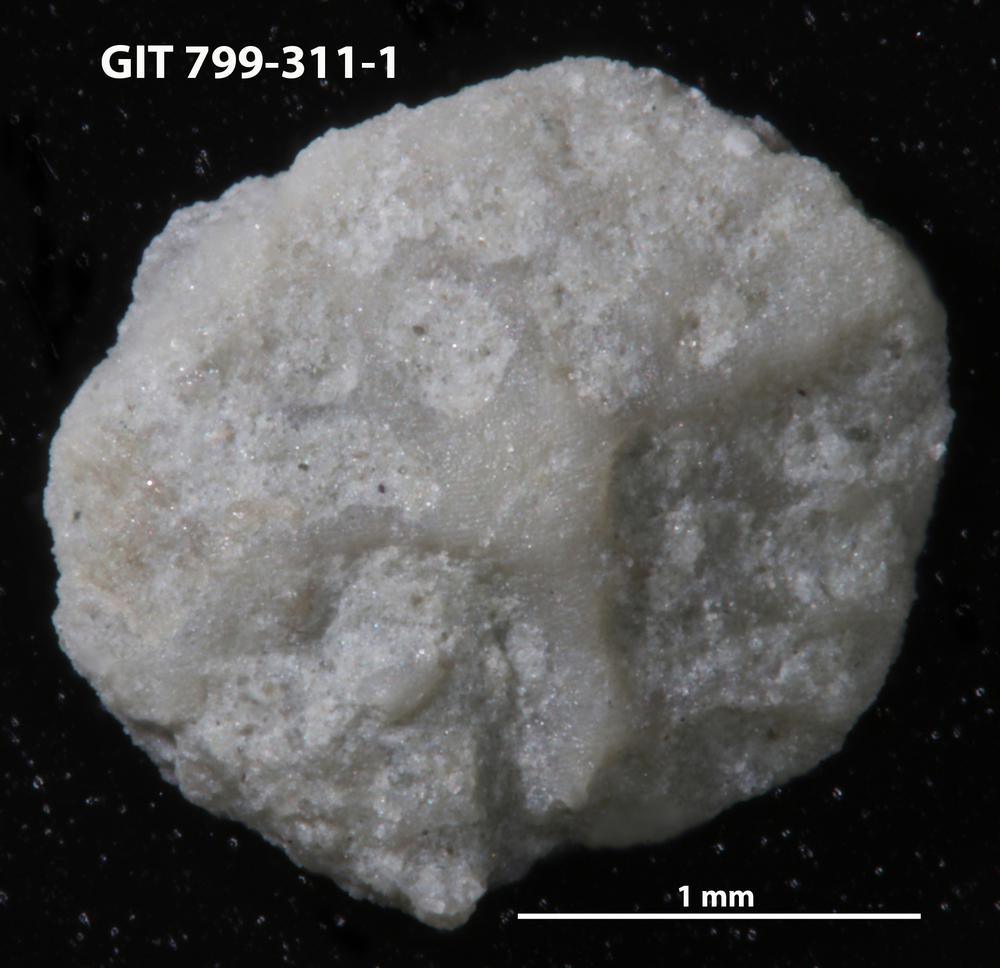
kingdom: Animalia
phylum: Echinodermata
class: Echinoidea
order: Bothriocidaroida
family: Bothriocidaridae
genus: Neobothriocidaris
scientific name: Neobothriocidaris
